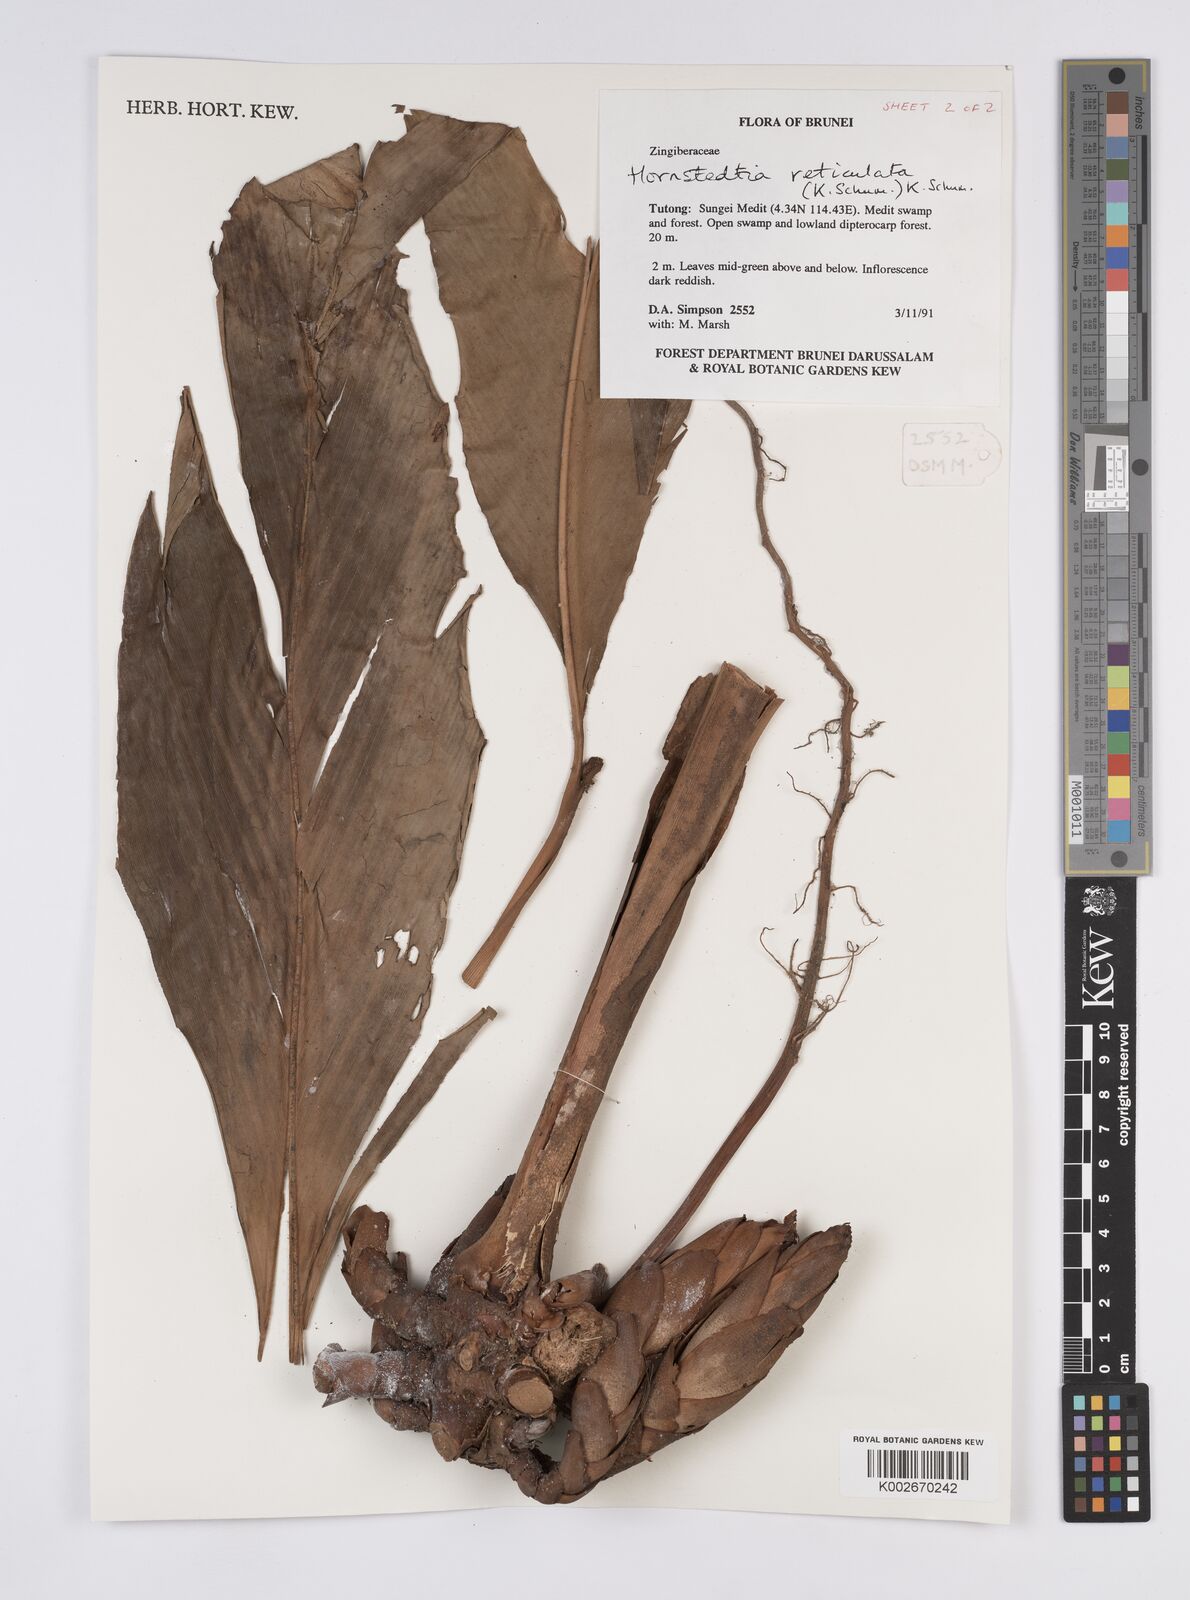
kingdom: Plantae
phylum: Tracheophyta
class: Liliopsida
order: Zingiberales
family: Zingiberaceae
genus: Hornstedtia
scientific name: Hornstedtia reticulata
